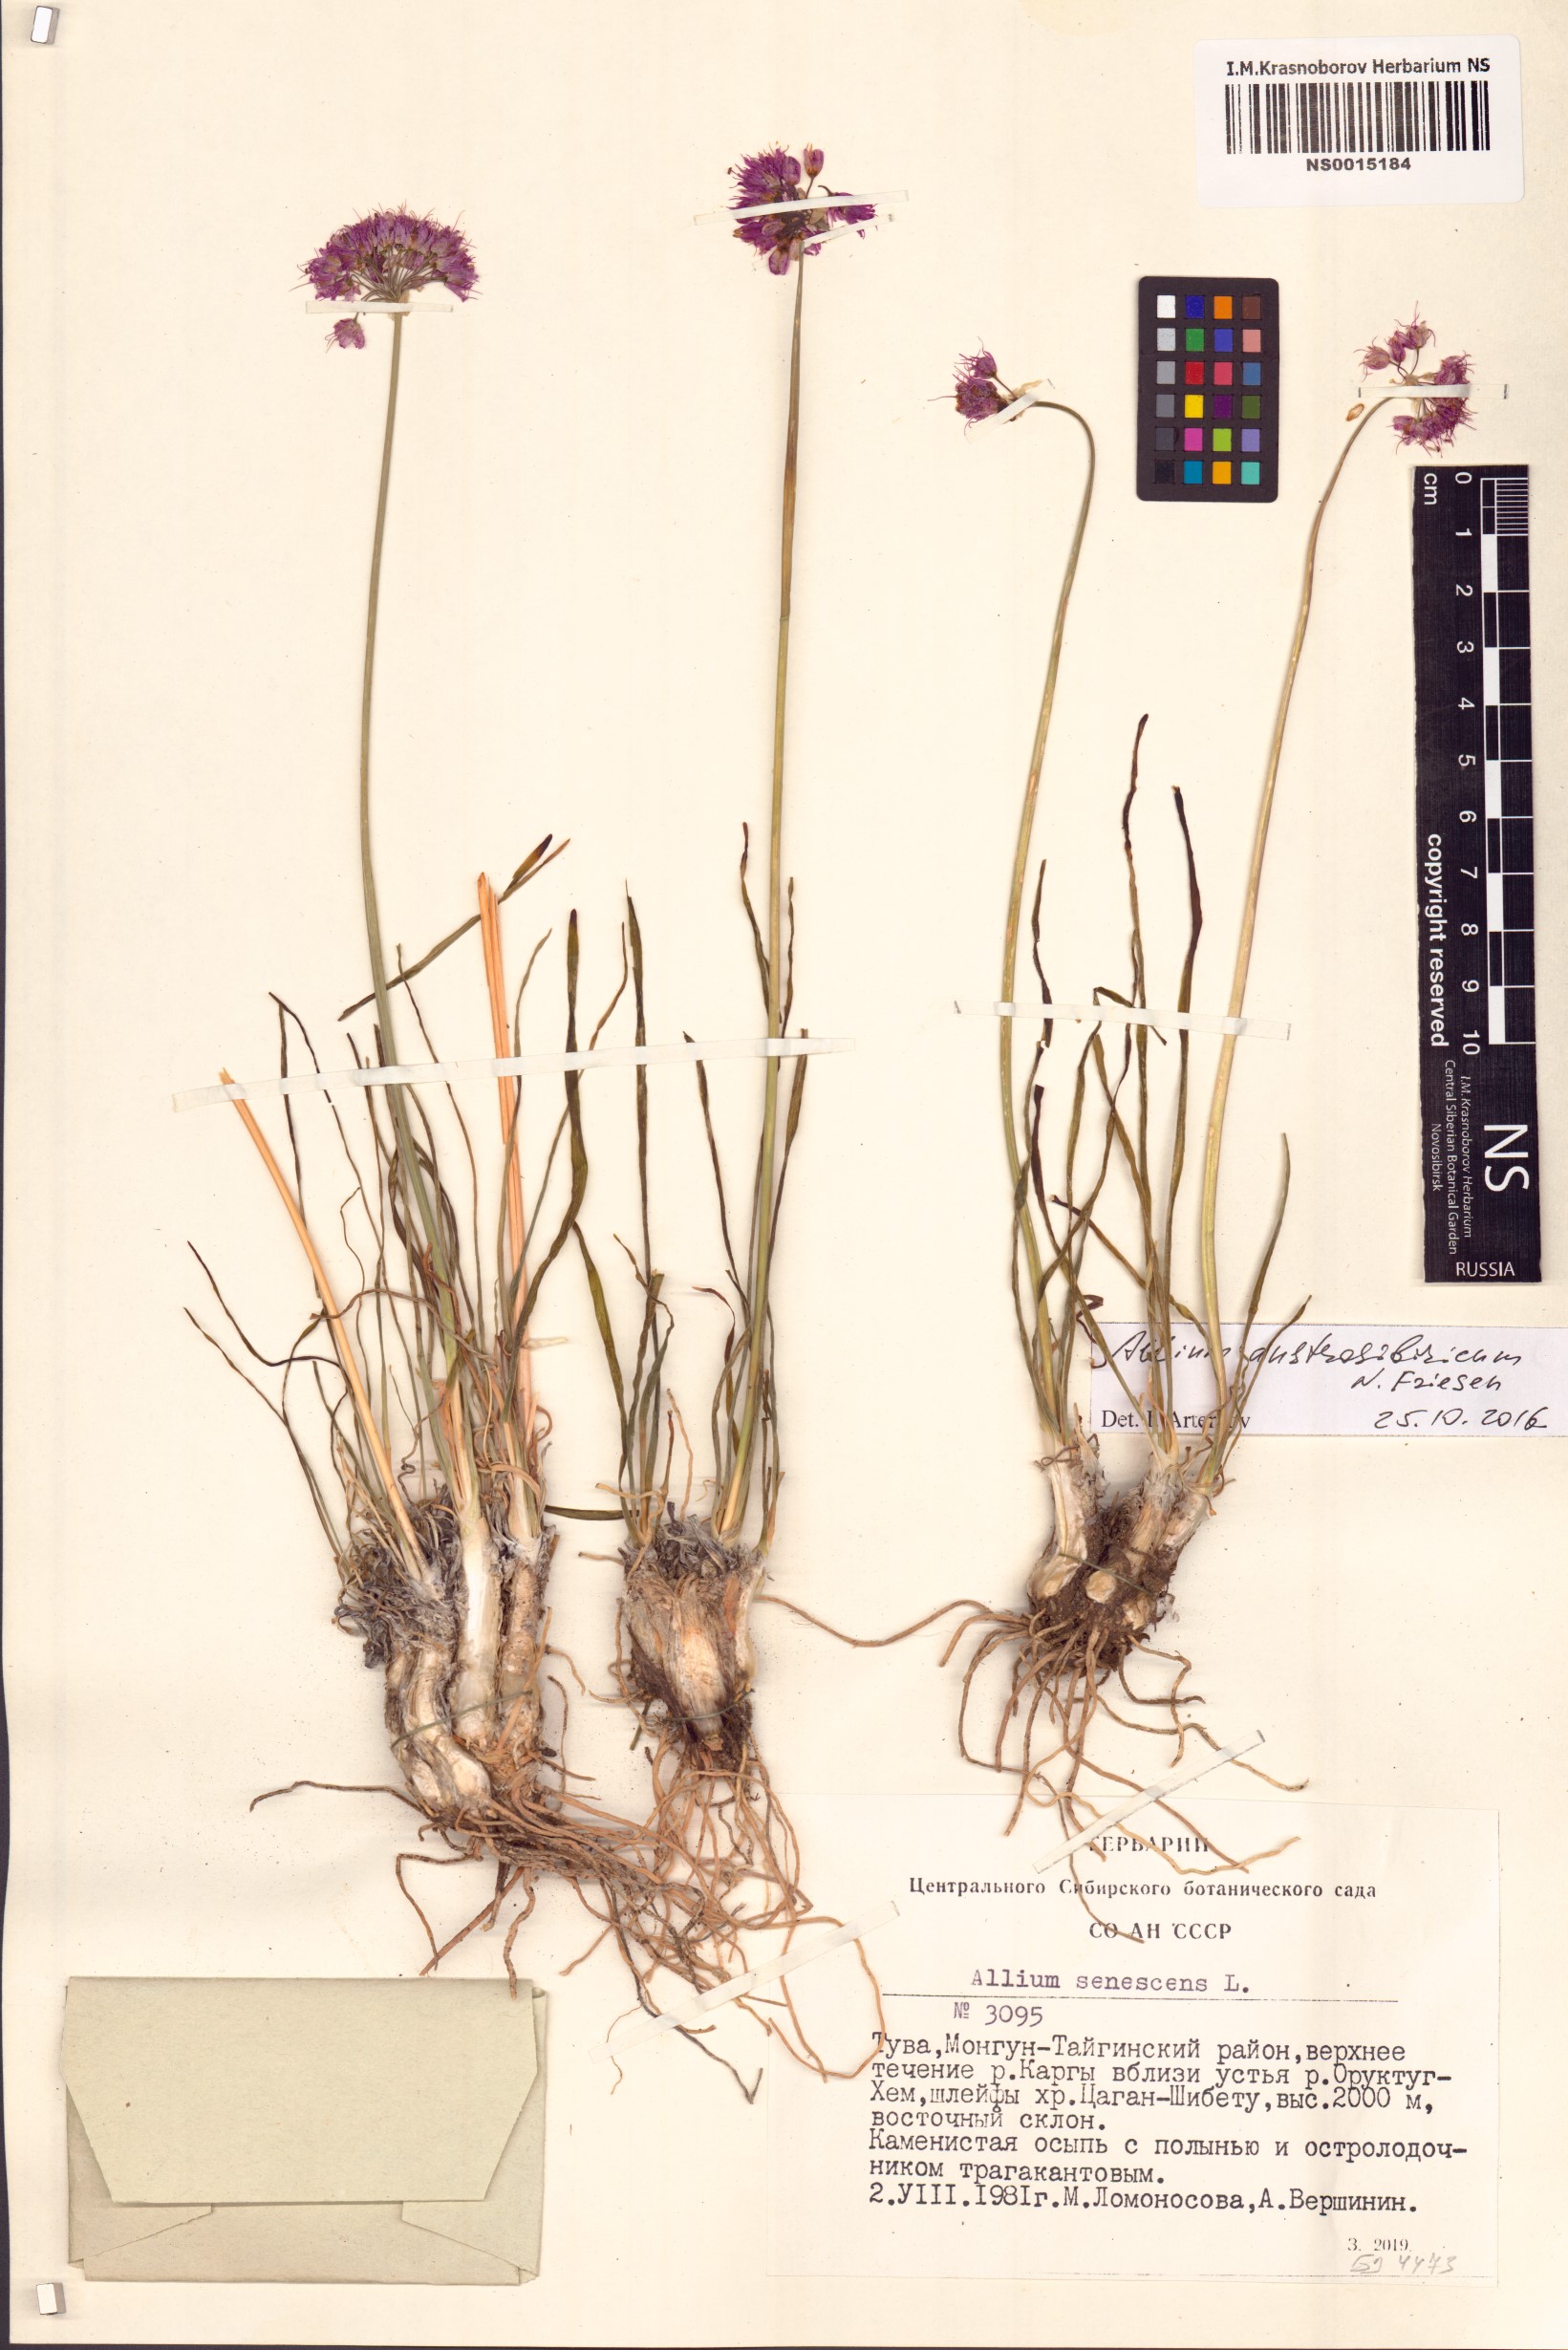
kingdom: Plantae
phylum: Tracheophyta
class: Liliopsida
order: Asparagales
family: Amaryllidaceae
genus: Allium
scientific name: Allium austrosibiricum
